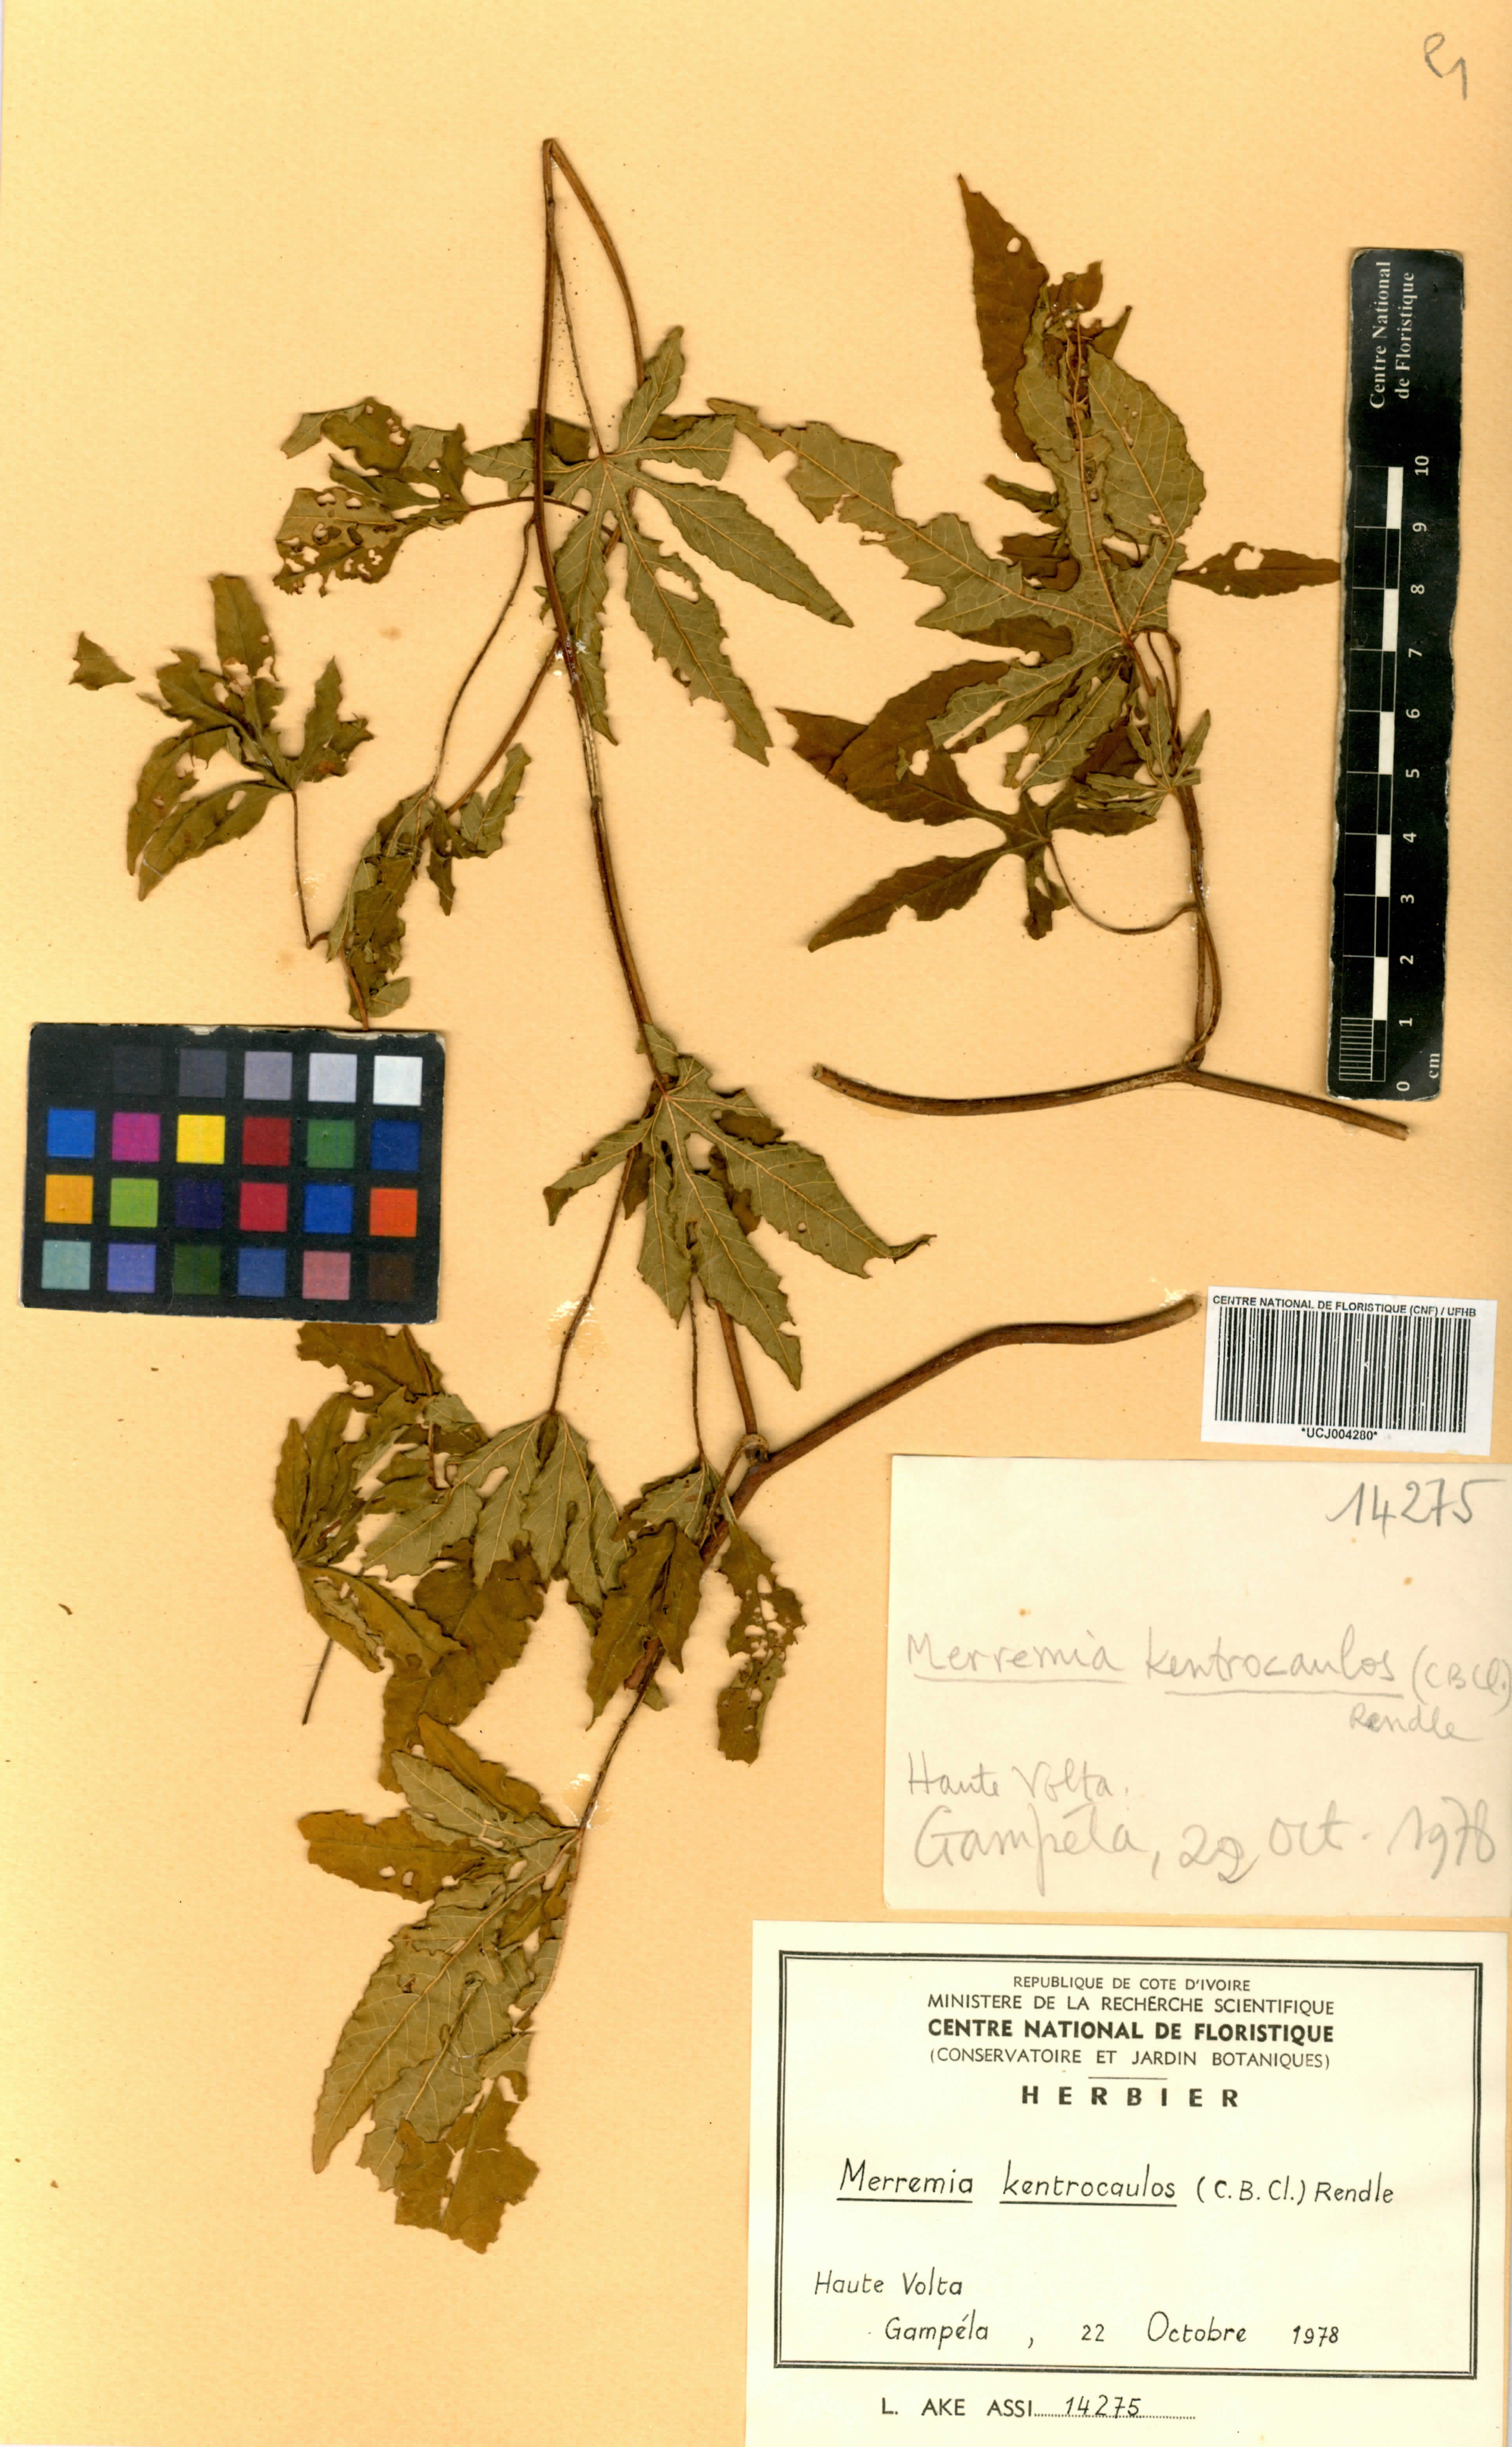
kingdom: Plantae
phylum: Tracheophyta
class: Magnoliopsida
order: Solanales
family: Convolvulaceae
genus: Distimake
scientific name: Distimake kentrocaulos
